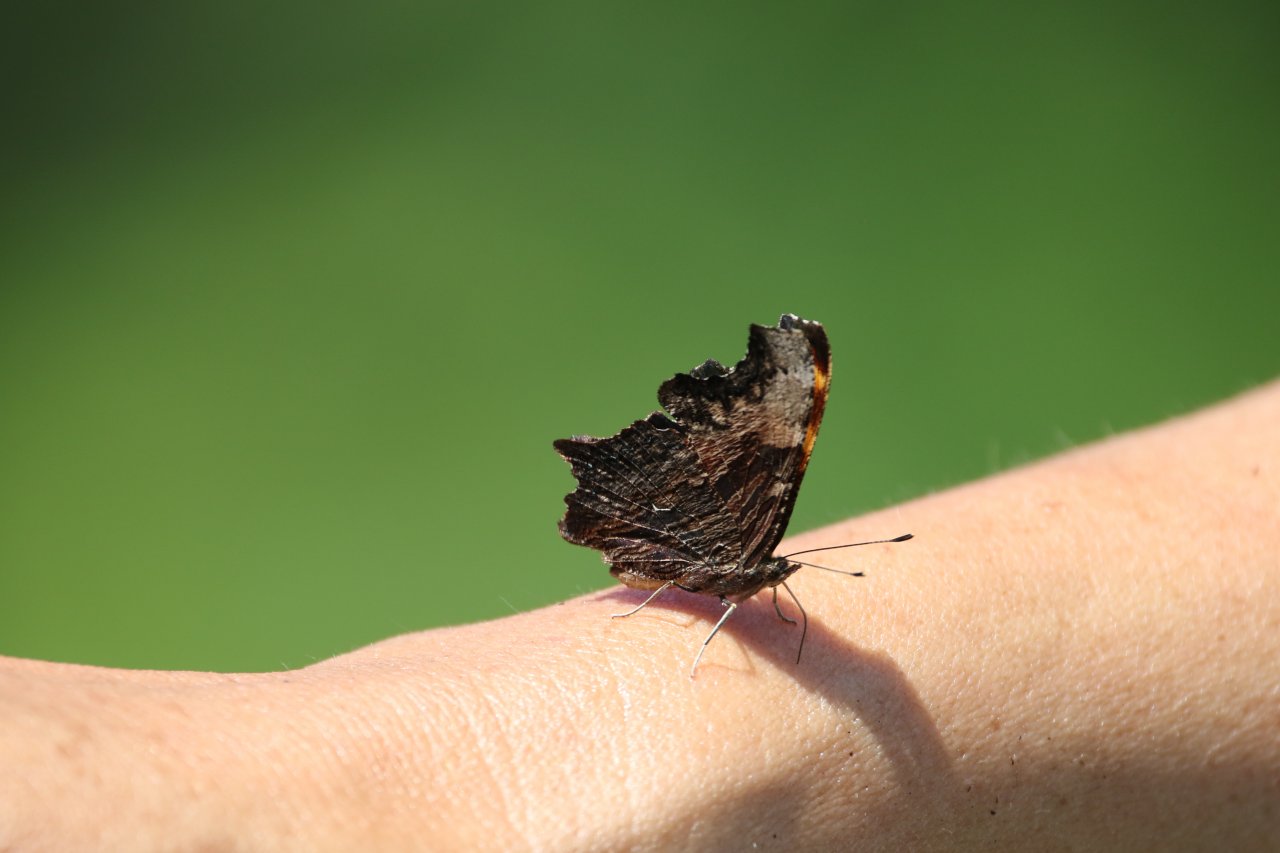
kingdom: Animalia
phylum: Arthropoda
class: Insecta
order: Lepidoptera
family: Nymphalidae
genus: Polygonia
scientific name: Polygonia progne
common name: Gray Comma
